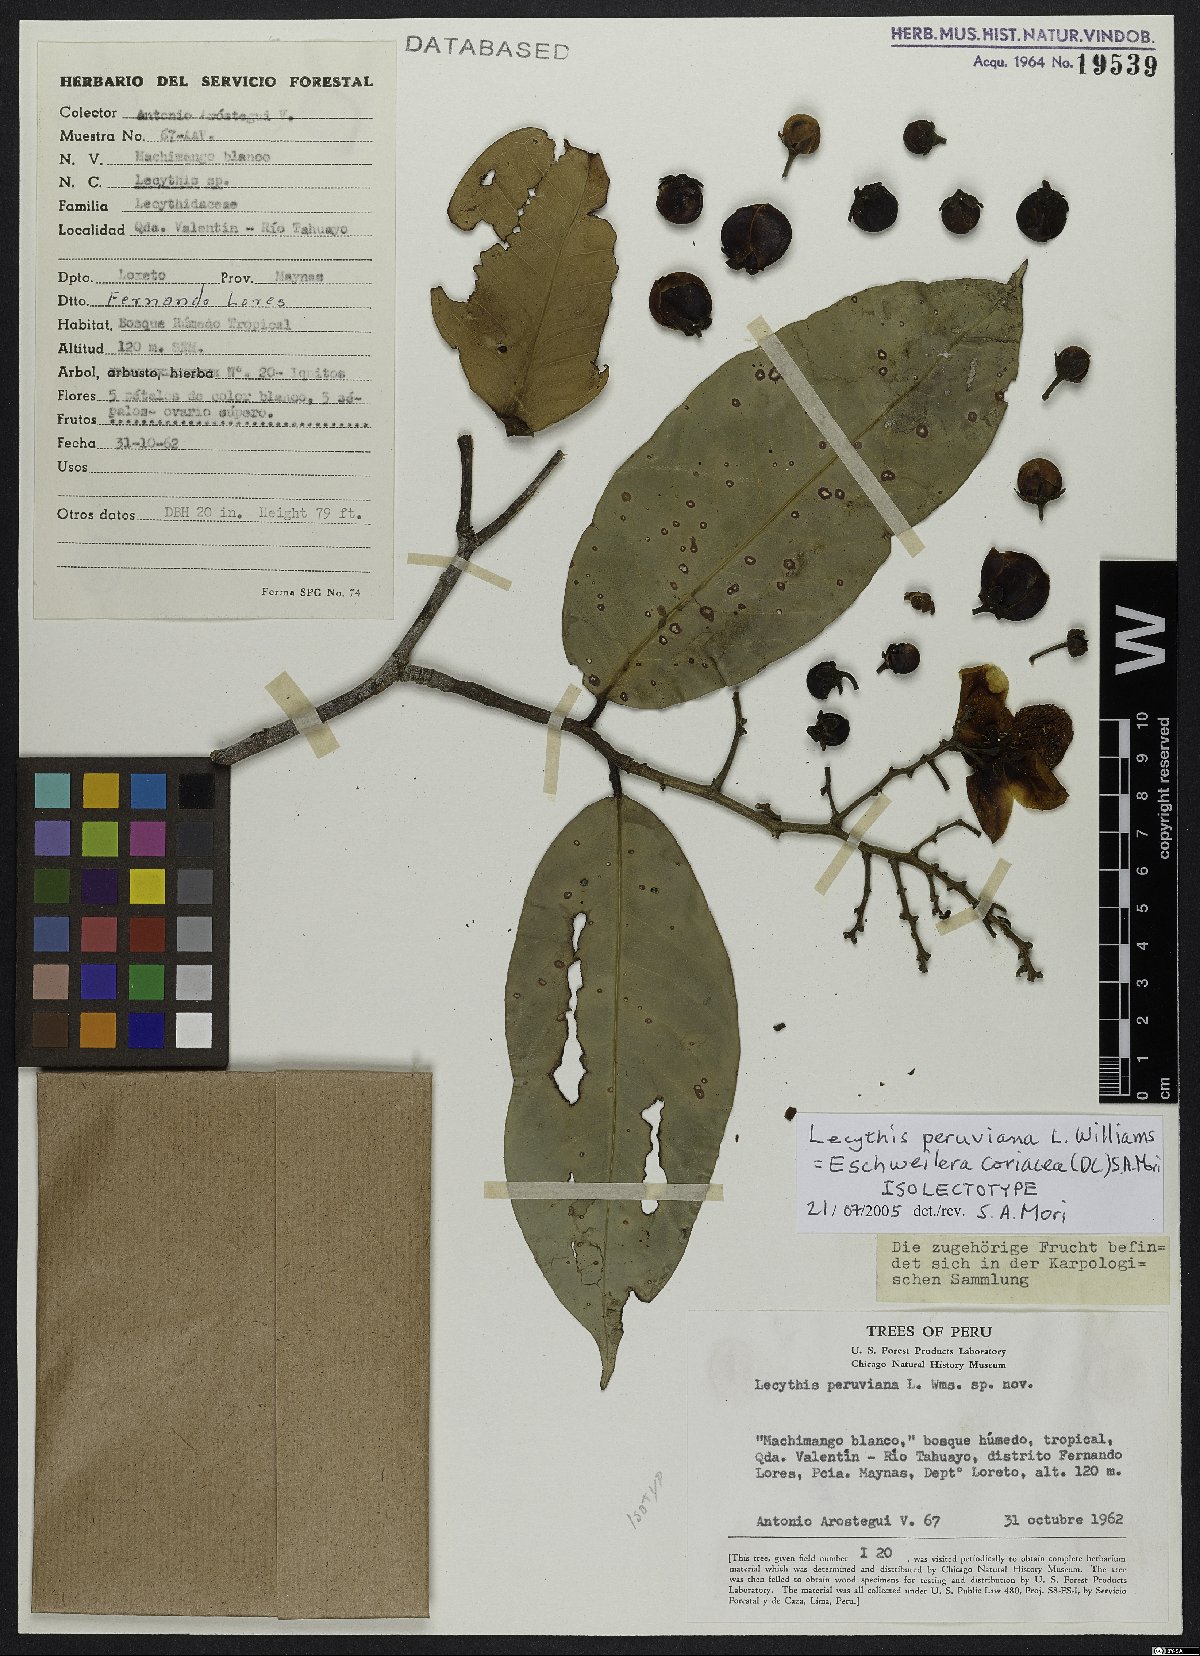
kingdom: Plantae
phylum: Tracheophyta
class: Magnoliopsida
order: Ericales
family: Lecythidaceae
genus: Eschweilera
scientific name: Eschweilera coriacea
